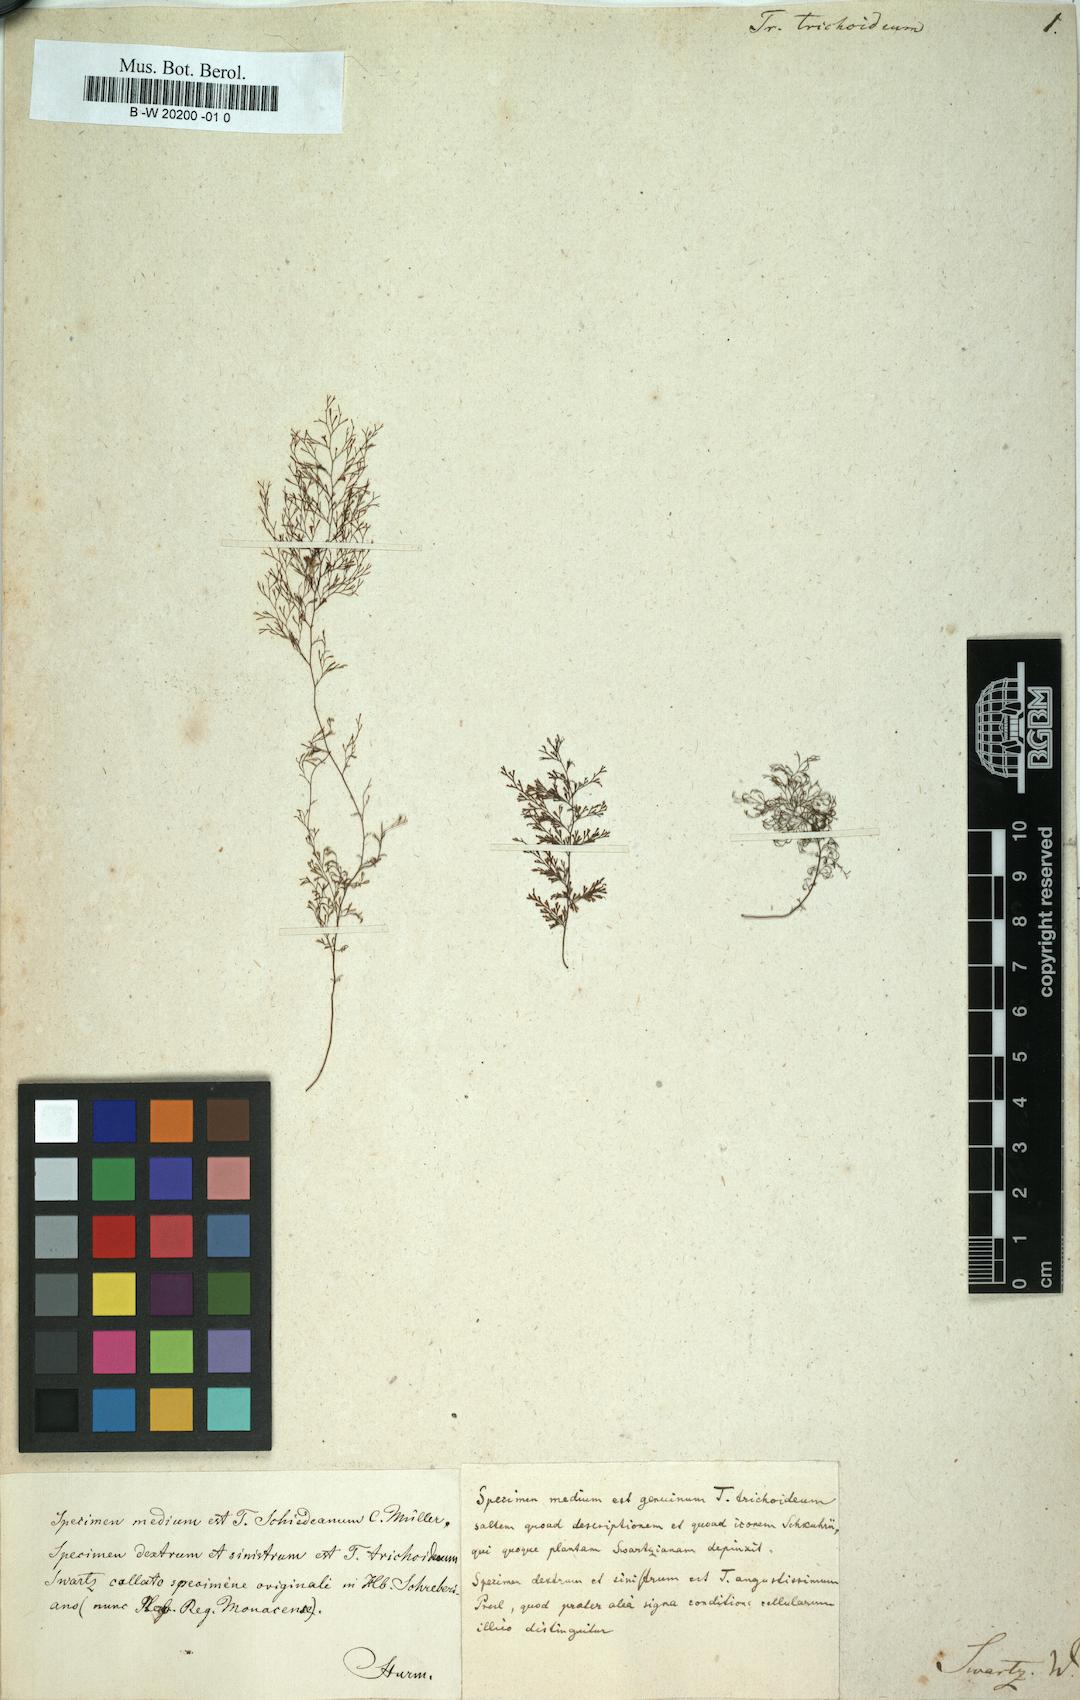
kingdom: Plantae
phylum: Tracheophyta
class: Polypodiopsida
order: Hymenophyllales
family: Hymenophyllaceae
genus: Polyphlebium
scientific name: Polyphlebium capillaceum
